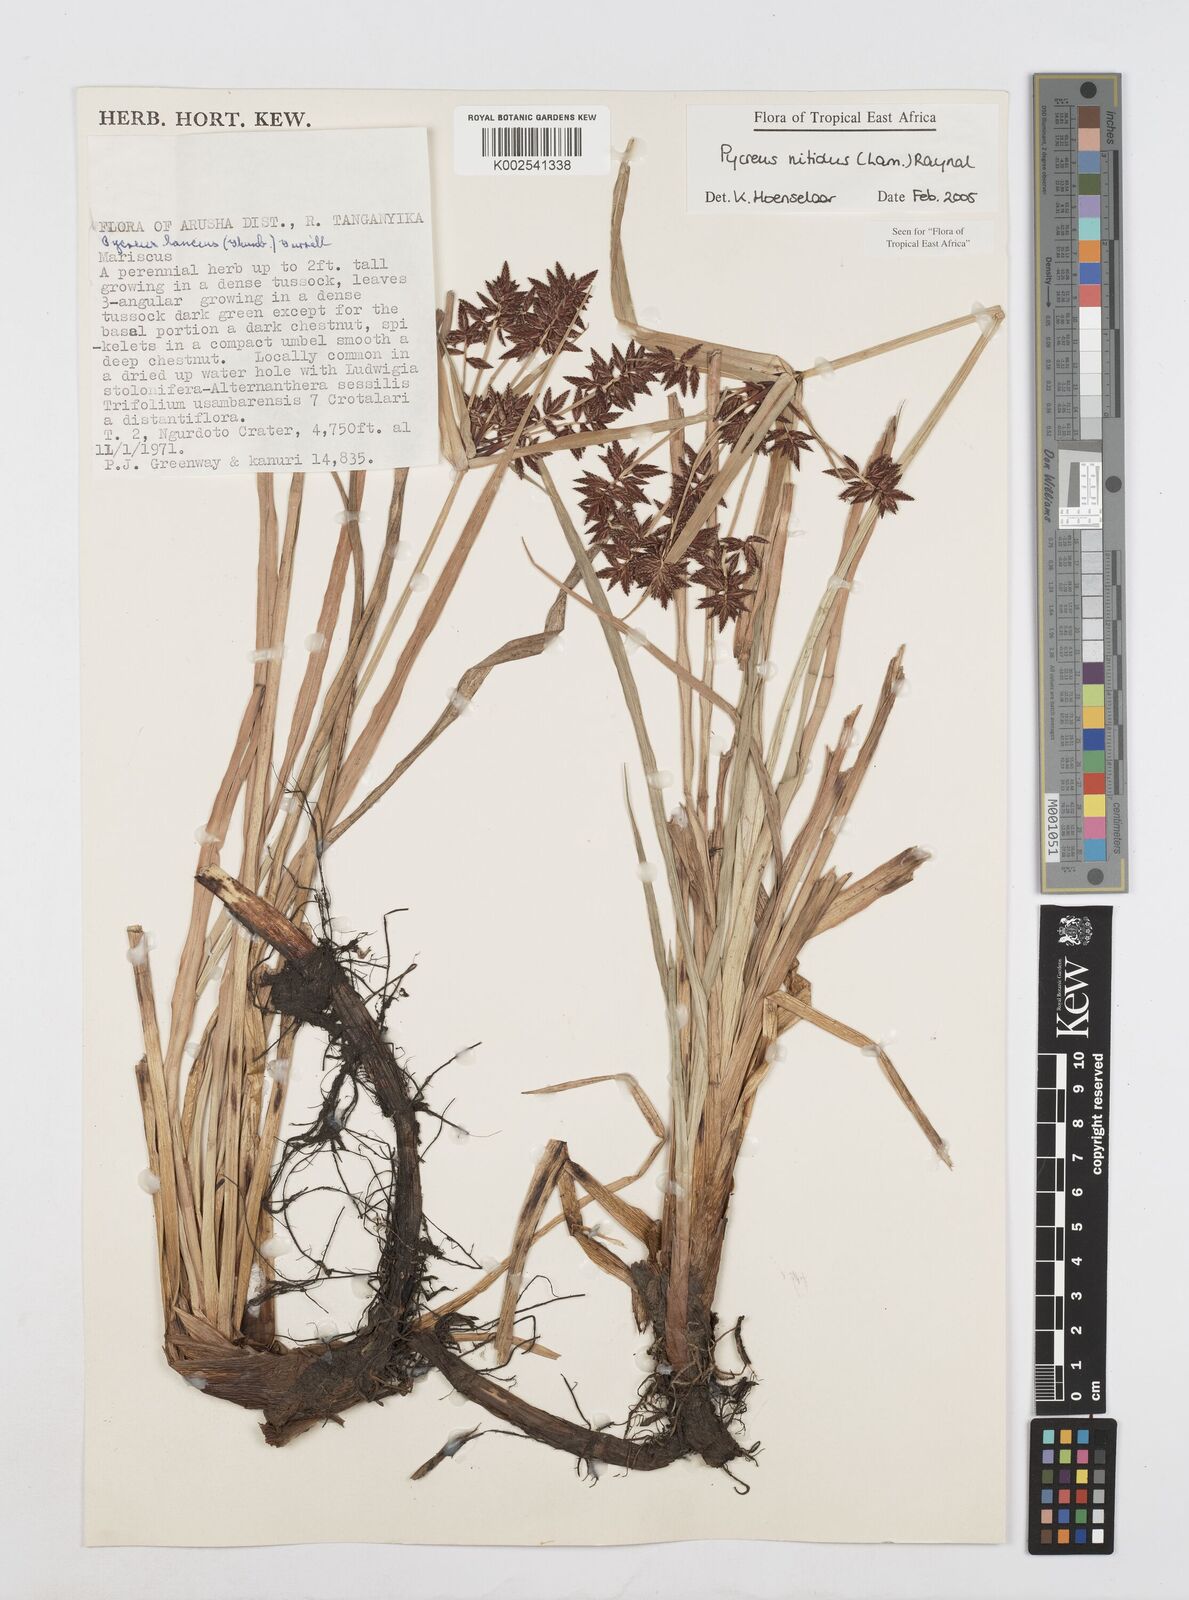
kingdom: Plantae
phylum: Tracheophyta
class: Liliopsida
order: Poales
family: Cyperaceae
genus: Cyperus
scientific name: Cyperus nitidus
